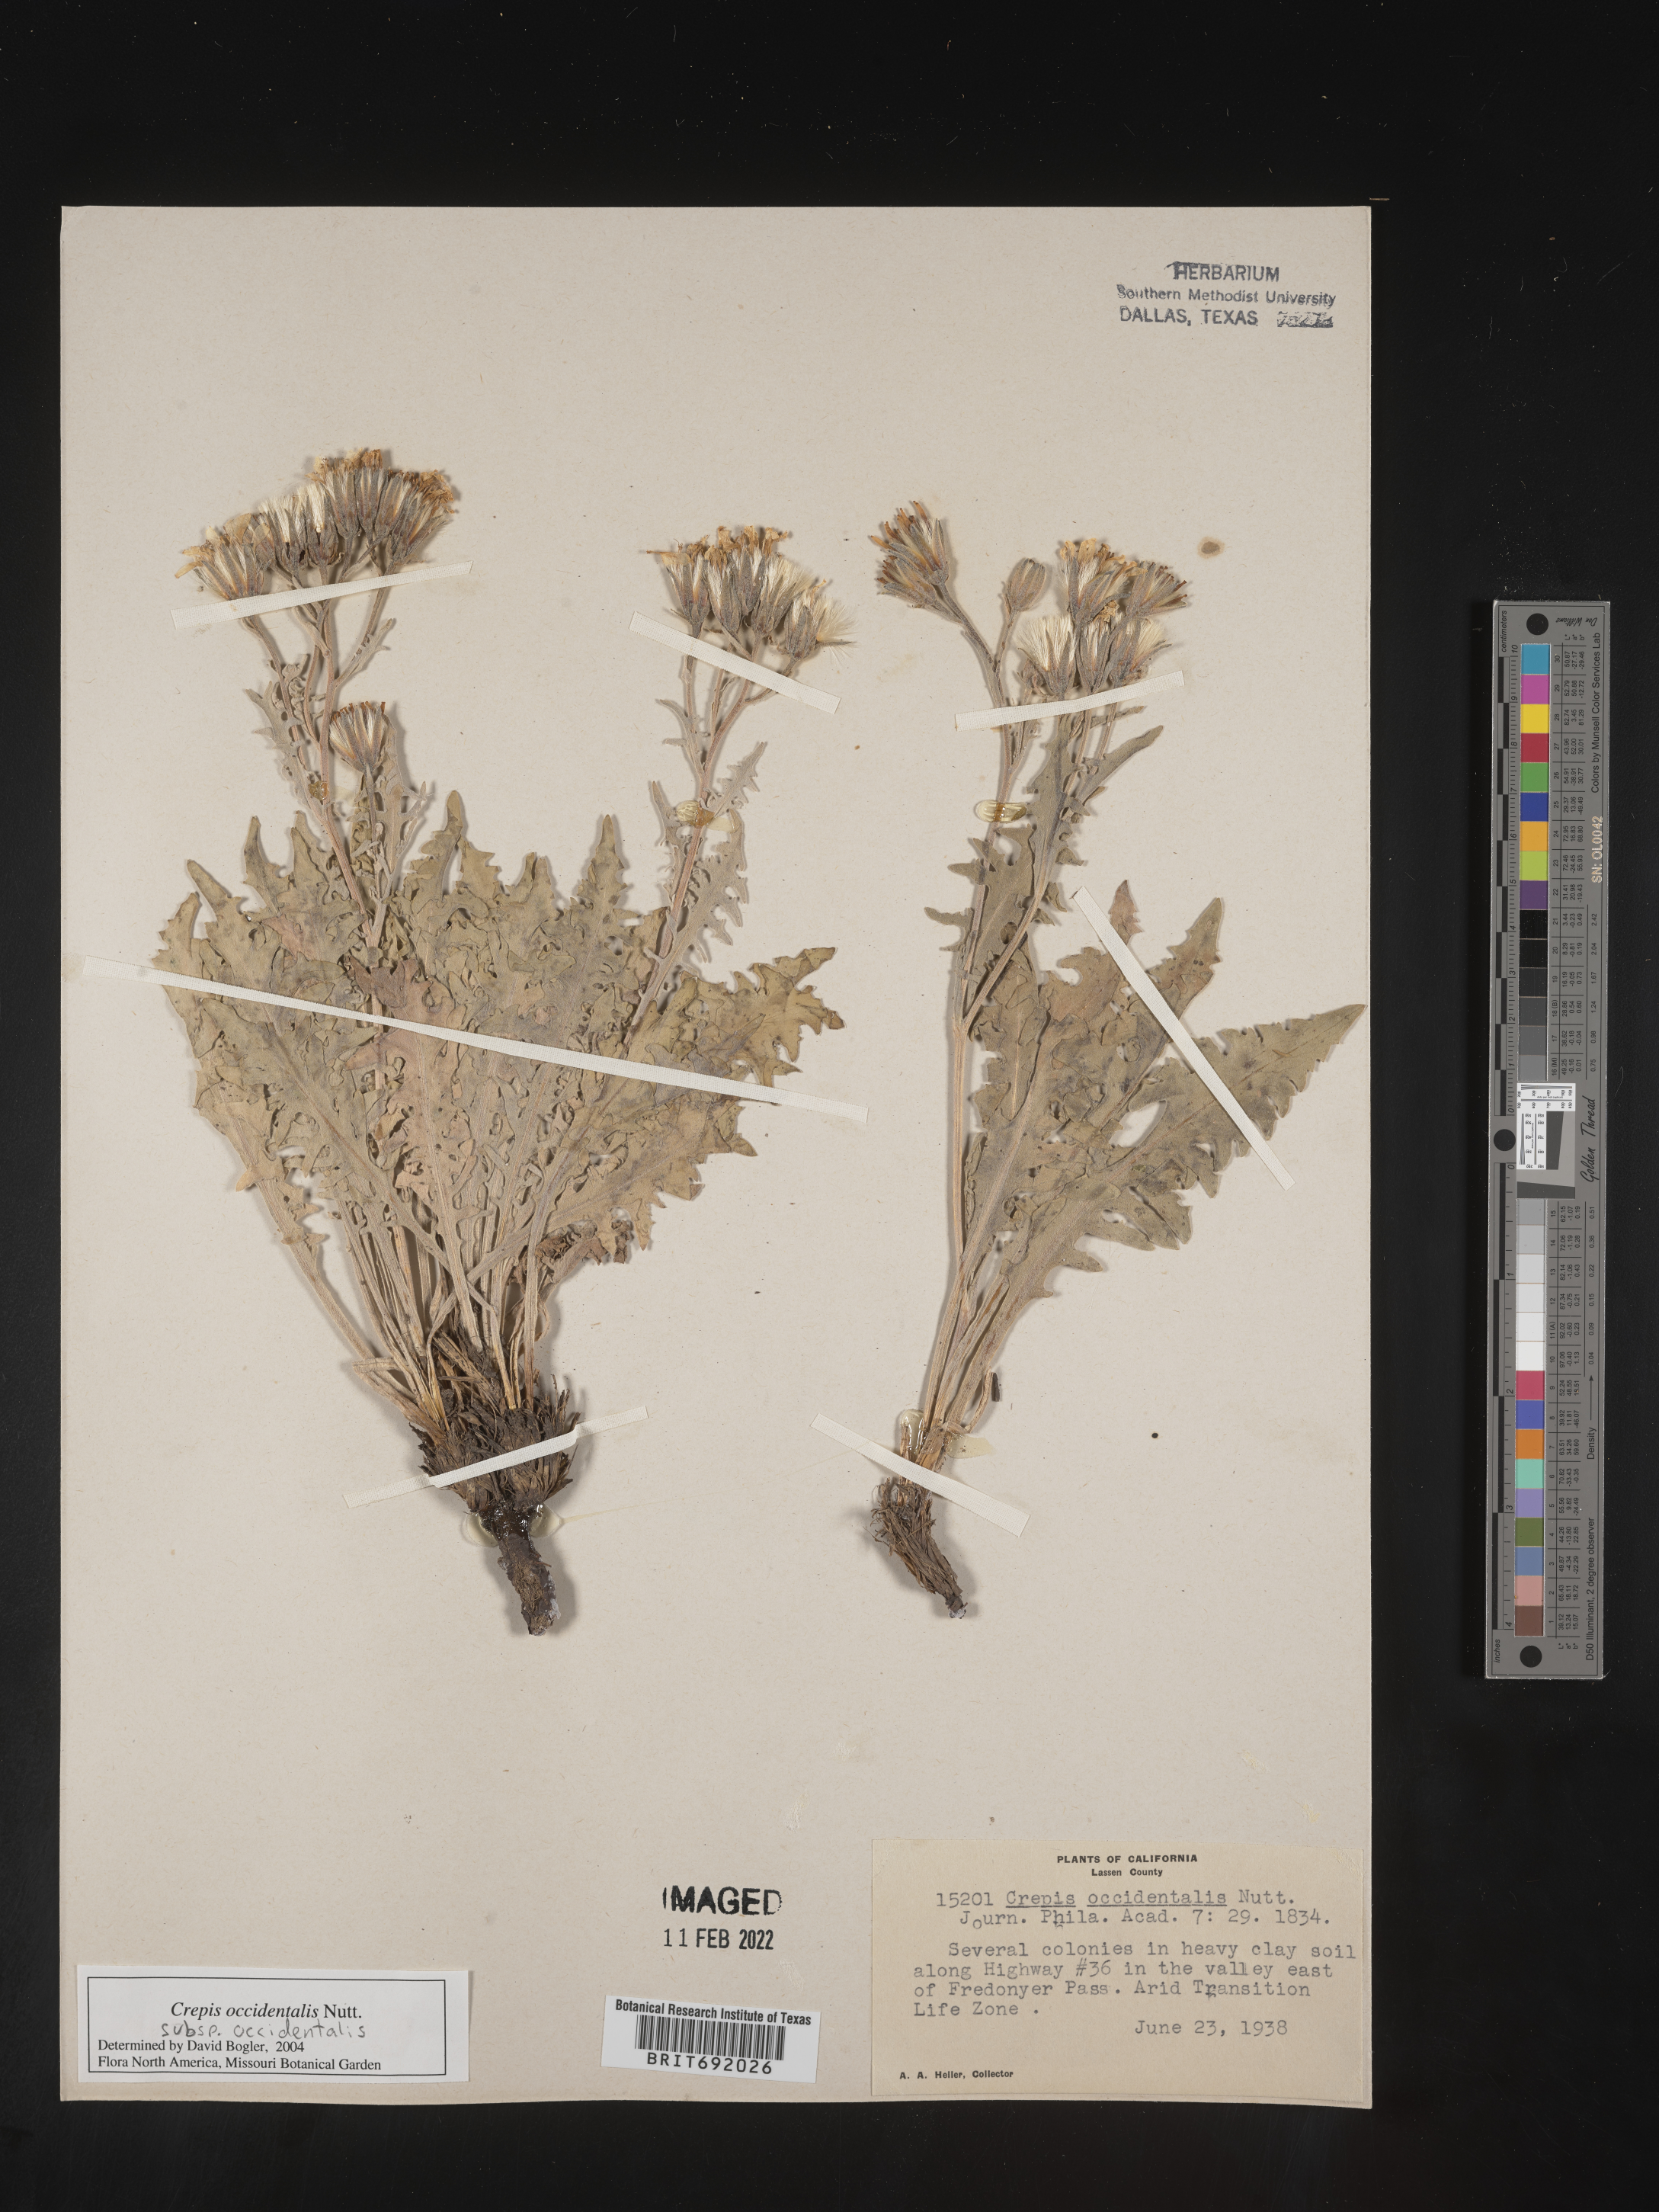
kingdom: Plantae
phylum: Tracheophyta
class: Magnoliopsida
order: Asterales
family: Asteraceae
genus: Crepis
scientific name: Crepis occidentalis
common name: Gray hawk's-beard
